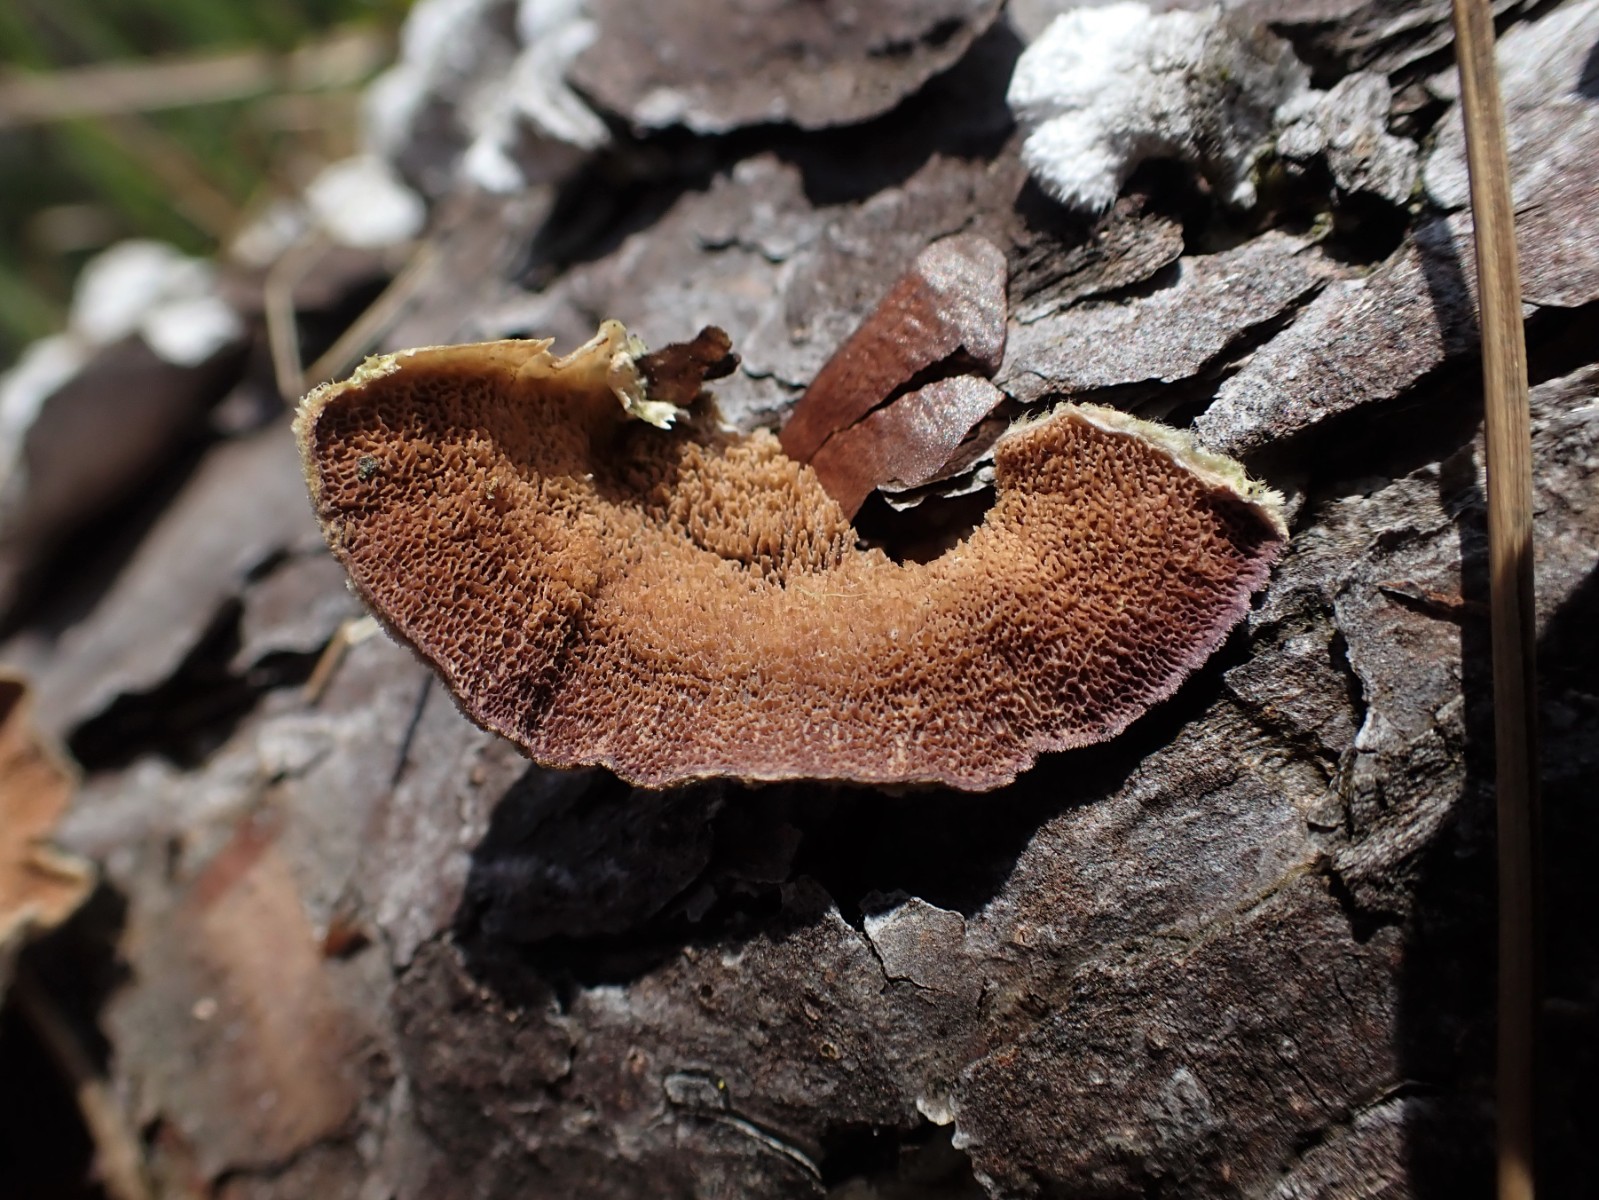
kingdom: Fungi
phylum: Basidiomycota
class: Agaricomycetes
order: Polyporales
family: Polyporaceae
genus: Trichaptum
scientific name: Trichaptum
